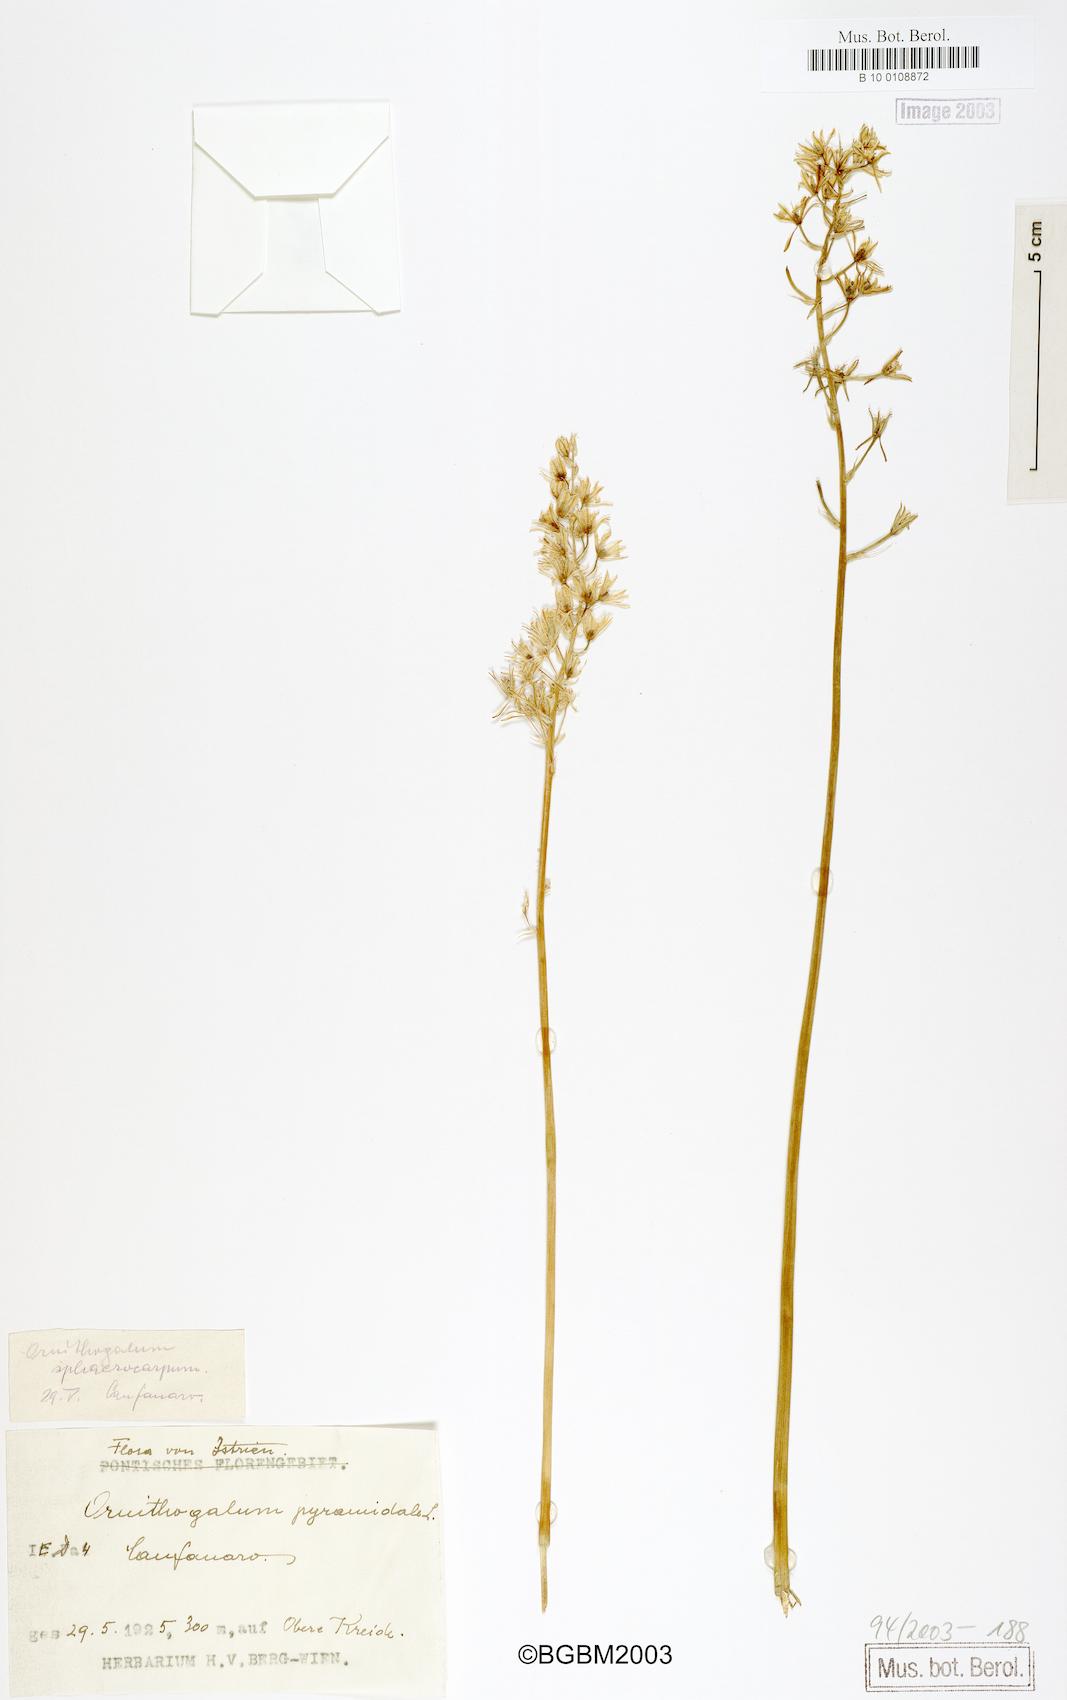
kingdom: Plantae
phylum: Tracheophyta
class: Liliopsida
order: Asparagales
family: Asparagaceae
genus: Ornithogalum
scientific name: Ornithogalum pyramidale
